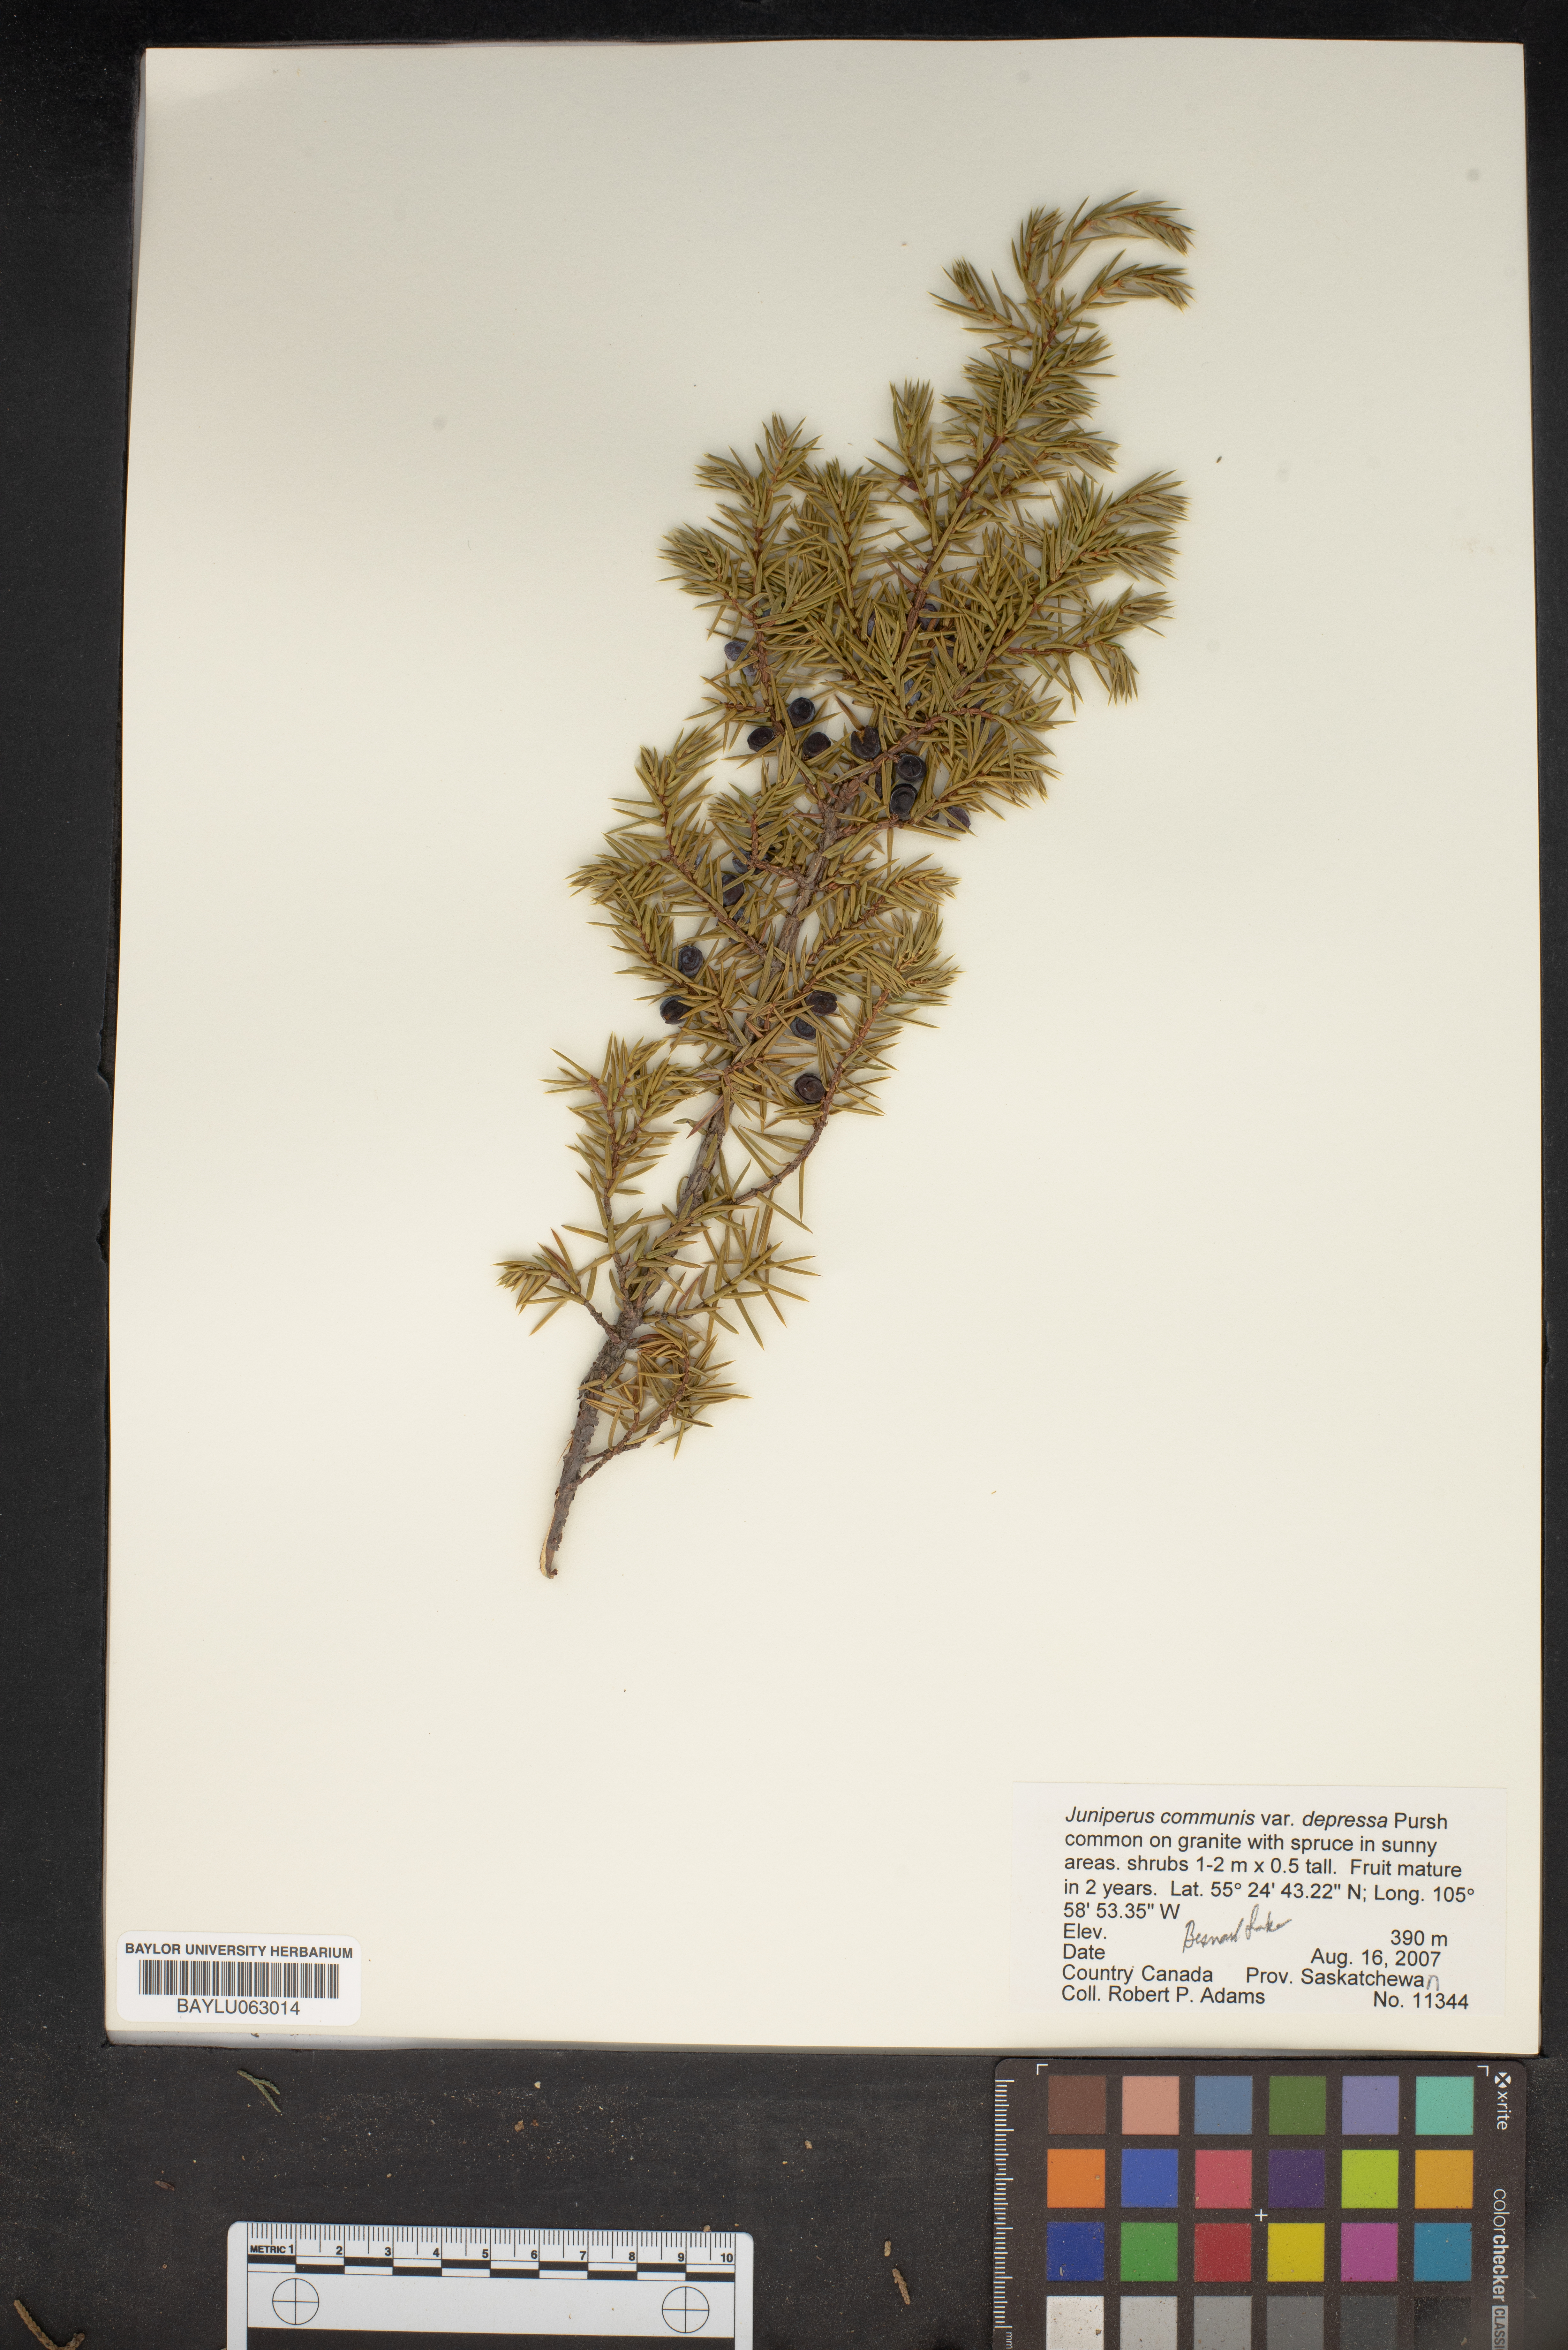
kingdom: Plantae
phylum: Tracheophyta
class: Pinopsida
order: Pinales
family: Cupressaceae
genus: Juniperus
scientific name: Juniperus communis
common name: Common juniper
